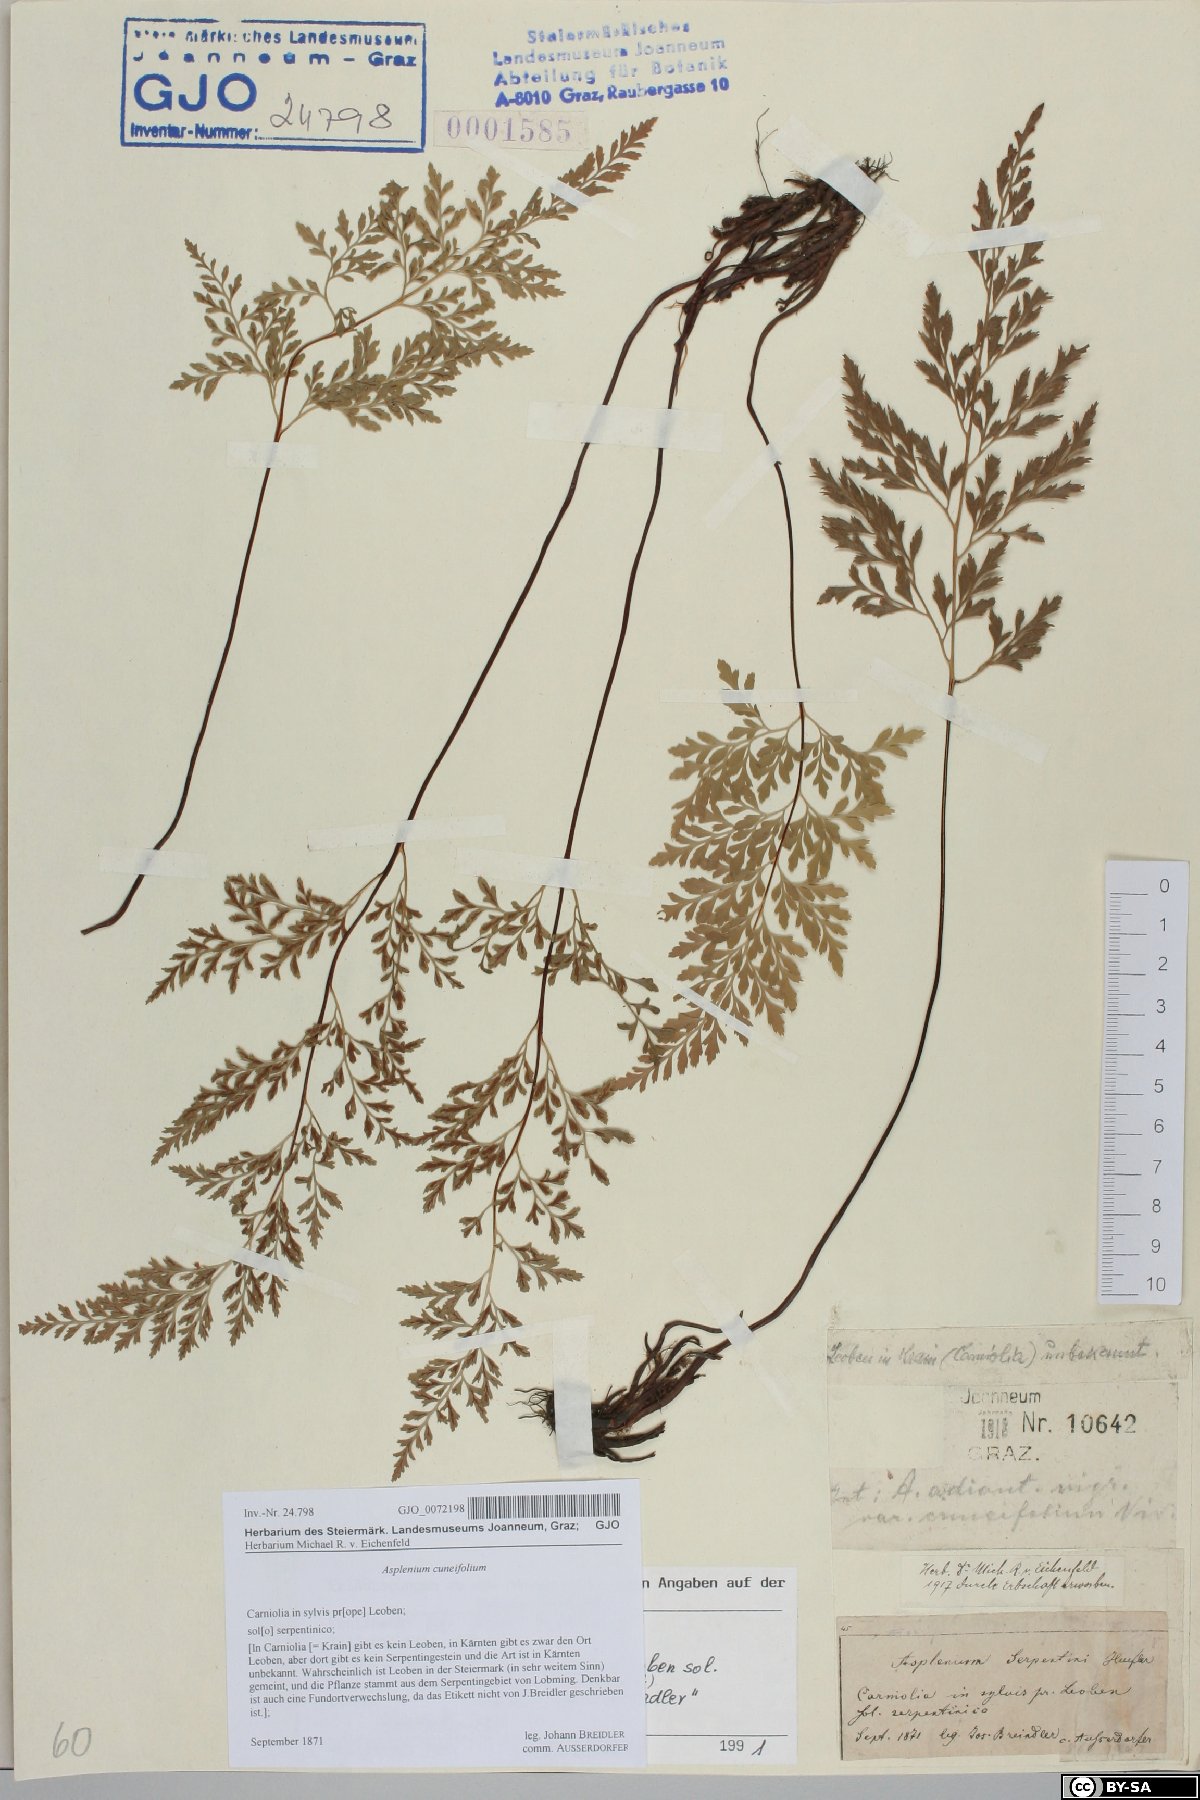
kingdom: Plantae
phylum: Tracheophyta
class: Polypodiopsida
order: Polypodiales
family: Aspleniaceae
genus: Asplenium
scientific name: Asplenium cuneifolium
